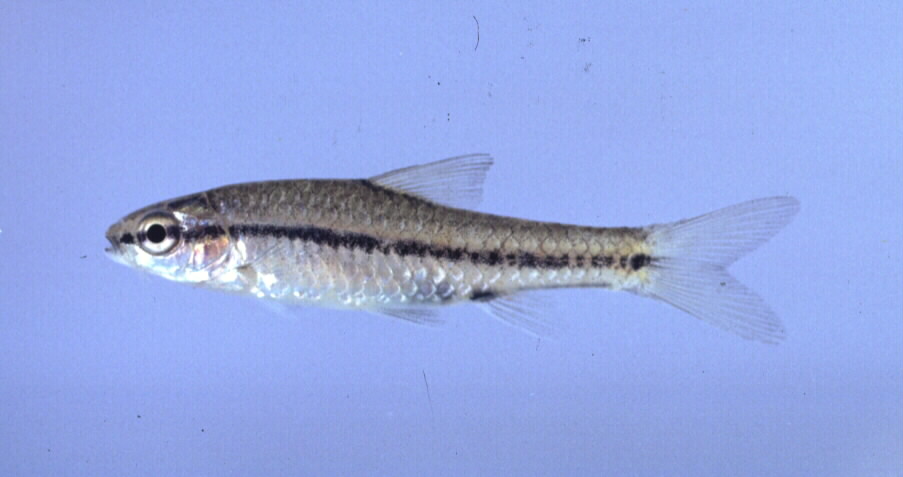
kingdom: Animalia
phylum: Chordata
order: Cypriniformes
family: Cyprinidae
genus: Enteromius
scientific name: Enteromius thamalakanensis
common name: Thamalakane barb
